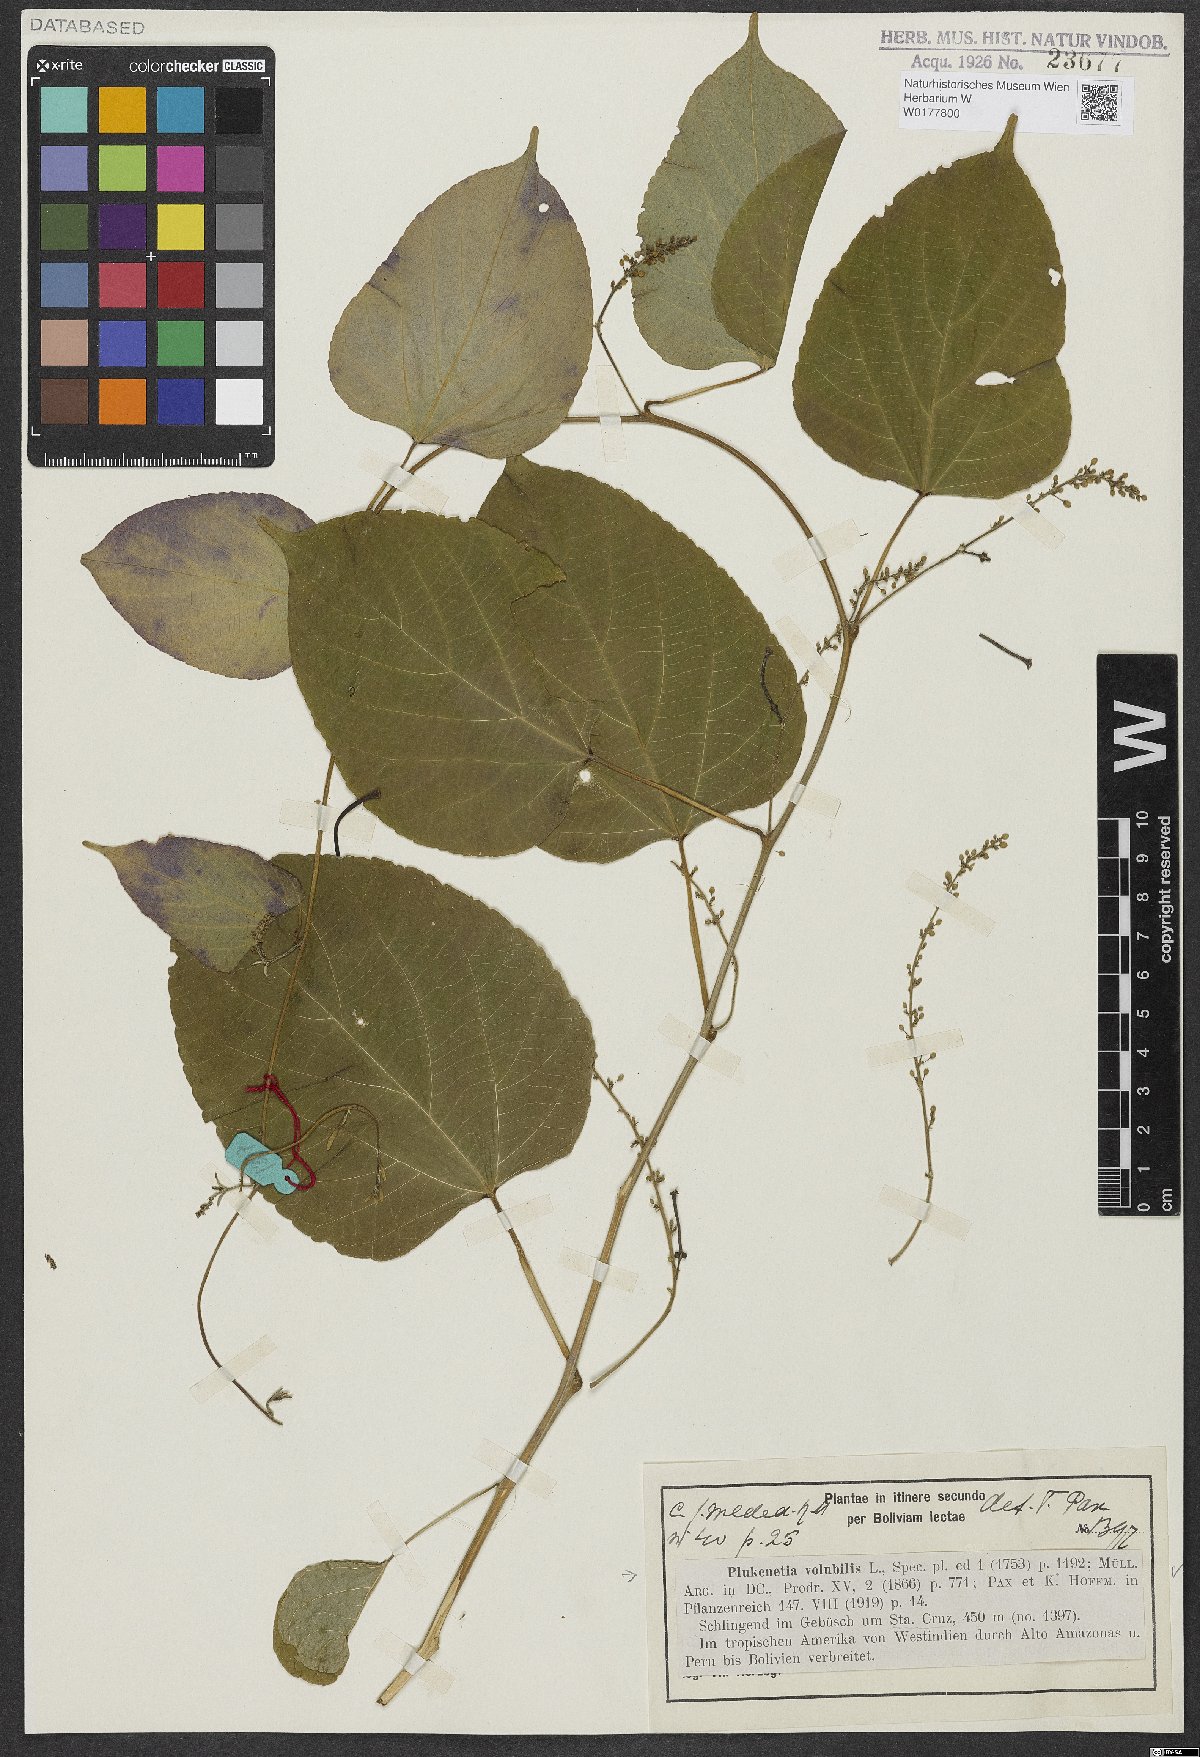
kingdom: Plantae
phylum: Tracheophyta
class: Magnoliopsida
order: Malpighiales
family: Euphorbiaceae
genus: Plukenetia
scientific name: Plukenetia volubilis
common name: Inca-peanut
